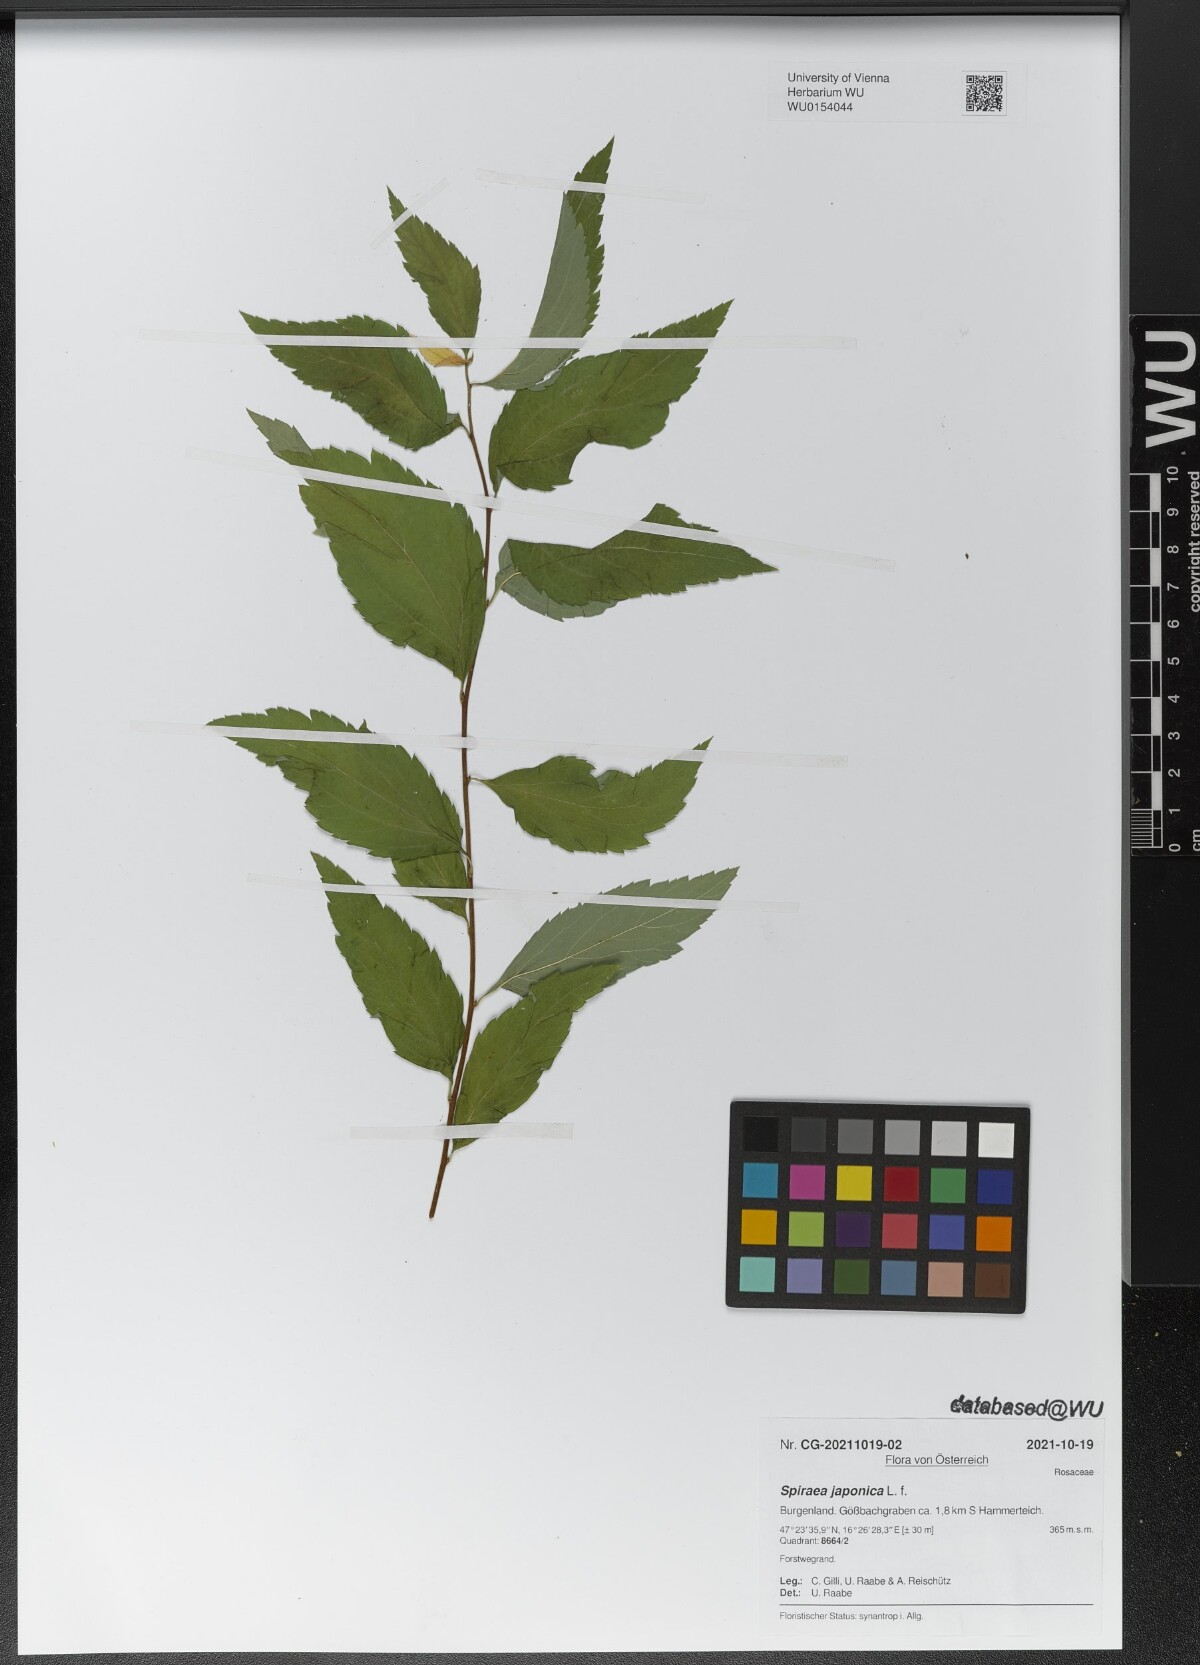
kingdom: Plantae
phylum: Tracheophyta
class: Magnoliopsida
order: Rosales
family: Rosaceae
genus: Spiraea
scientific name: Spiraea japonica
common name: Japanese spiraea
